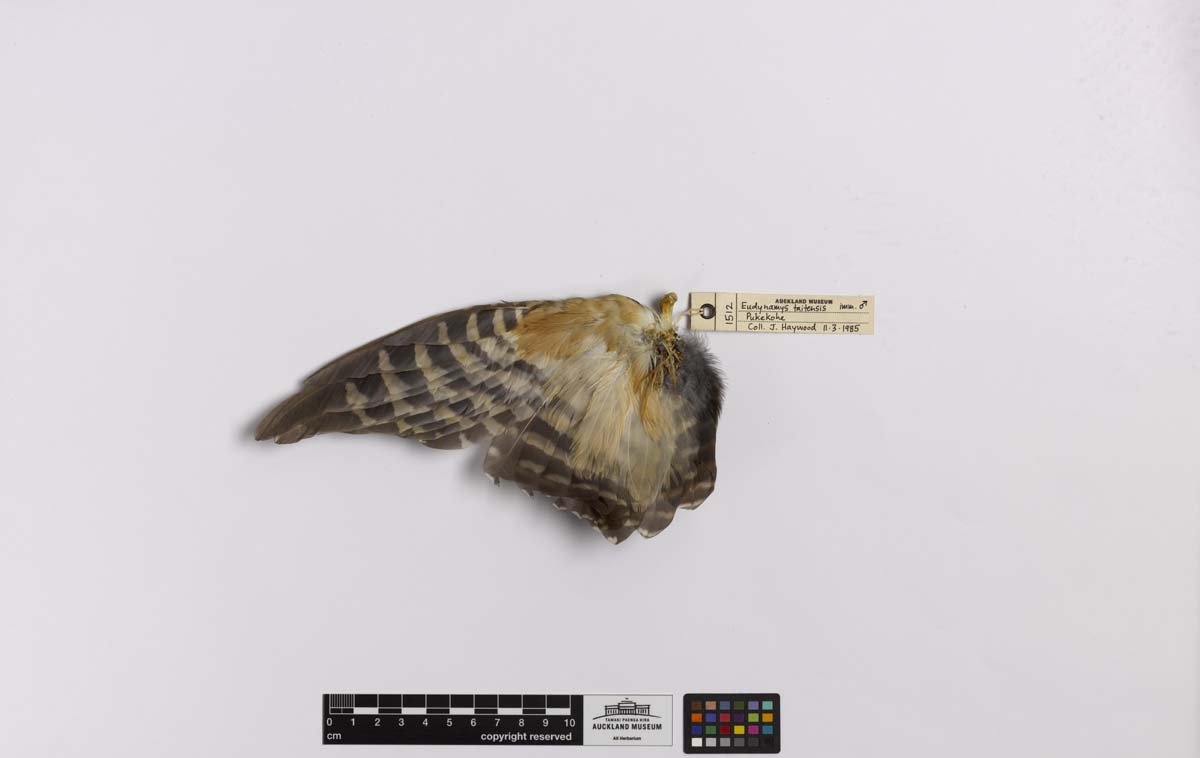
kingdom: Animalia
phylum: Chordata
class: Aves
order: Cuculiformes
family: Cuculidae
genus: Urodynamis
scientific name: Urodynamis taitensis
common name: Long-tailed koel
